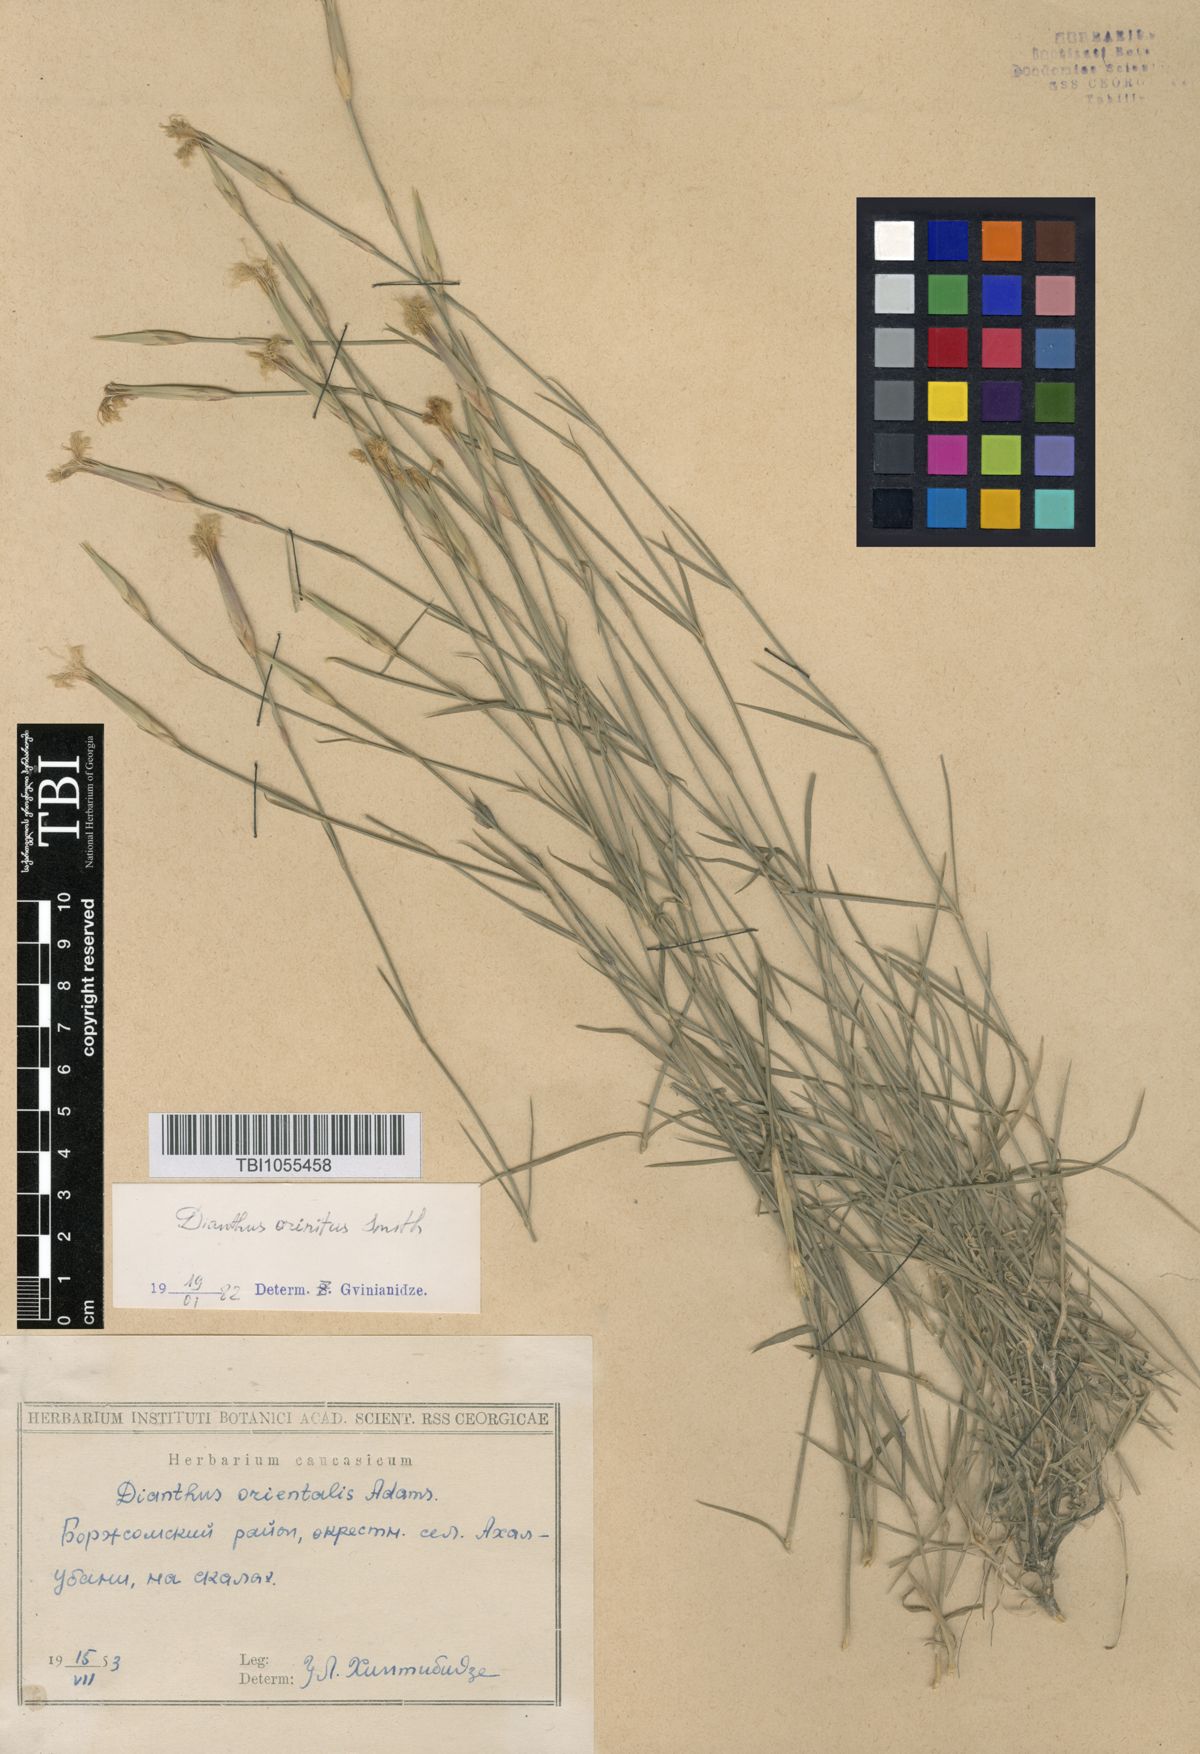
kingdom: Plantae
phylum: Tracheophyta
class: Magnoliopsida
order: Caryophyllales
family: Caryophyllaceae
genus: Dianthus
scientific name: Dianthus crinitus
